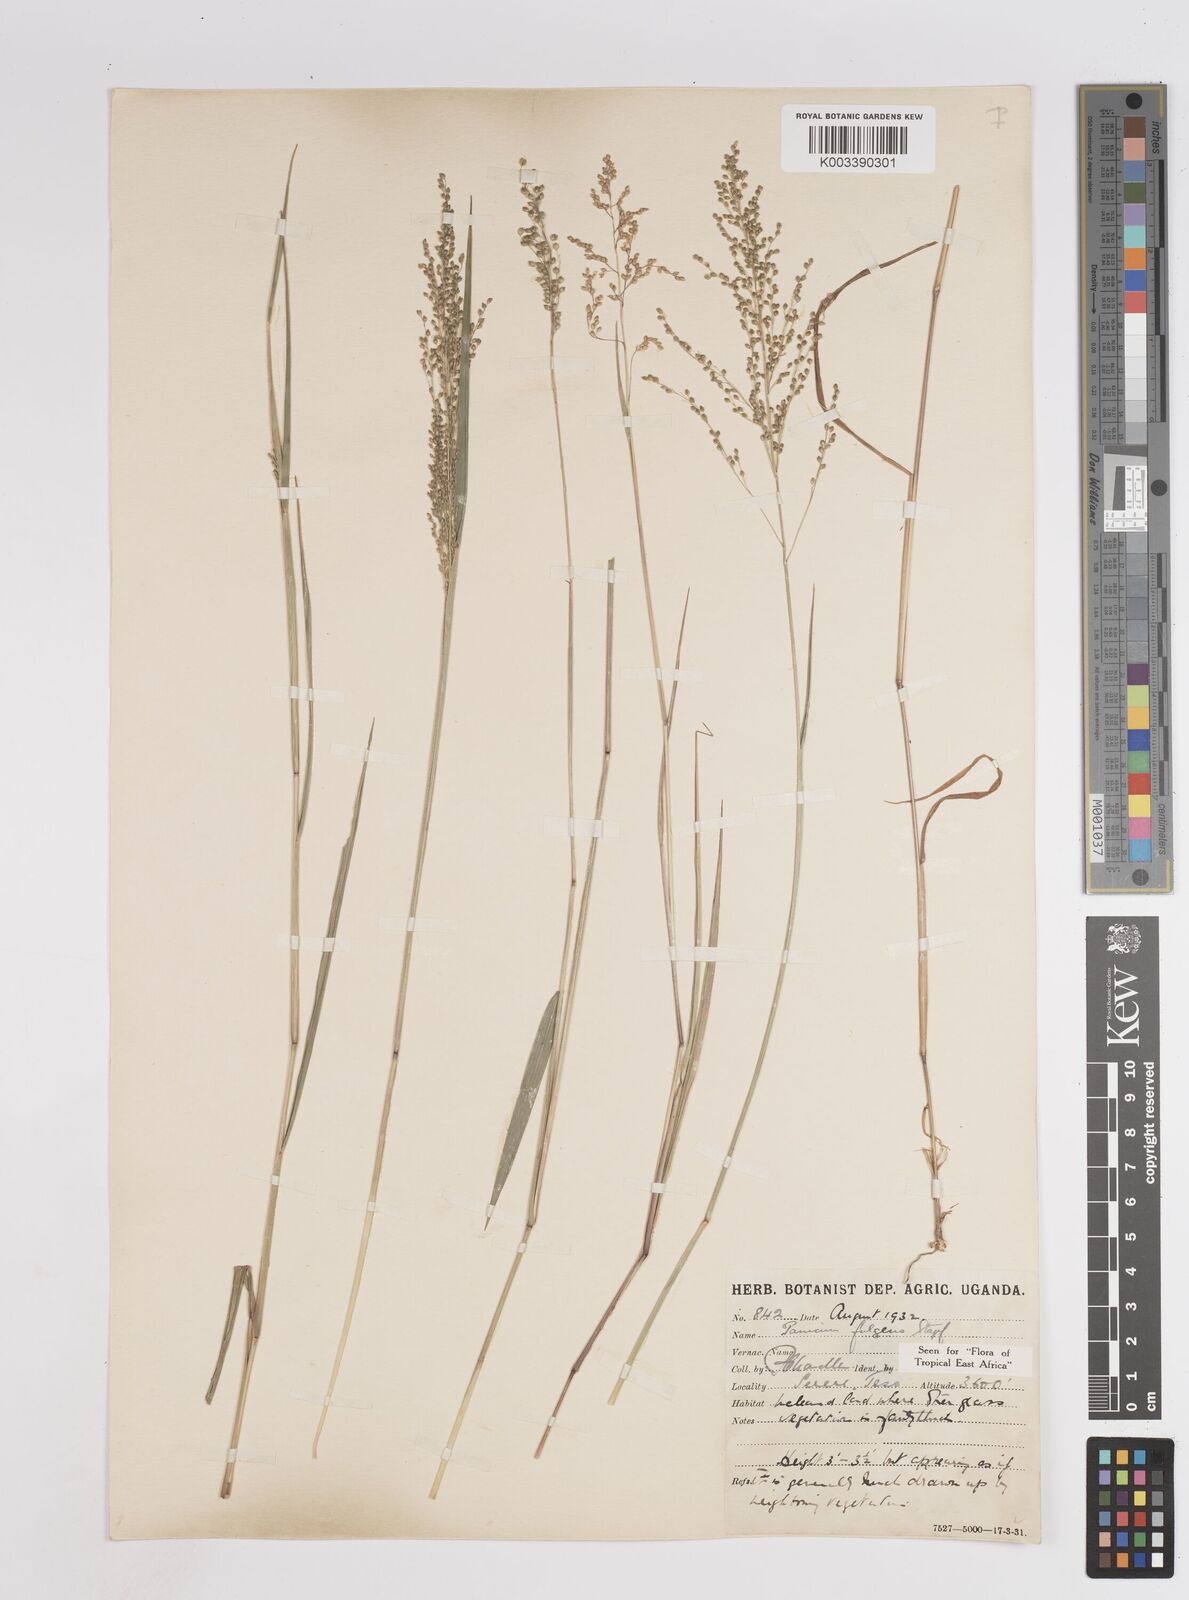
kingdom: Plantae
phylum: Tracheophyta
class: Liliopsida
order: Poales
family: Poaceae
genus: Trichanthecium
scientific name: Trichanthecium nervatum
